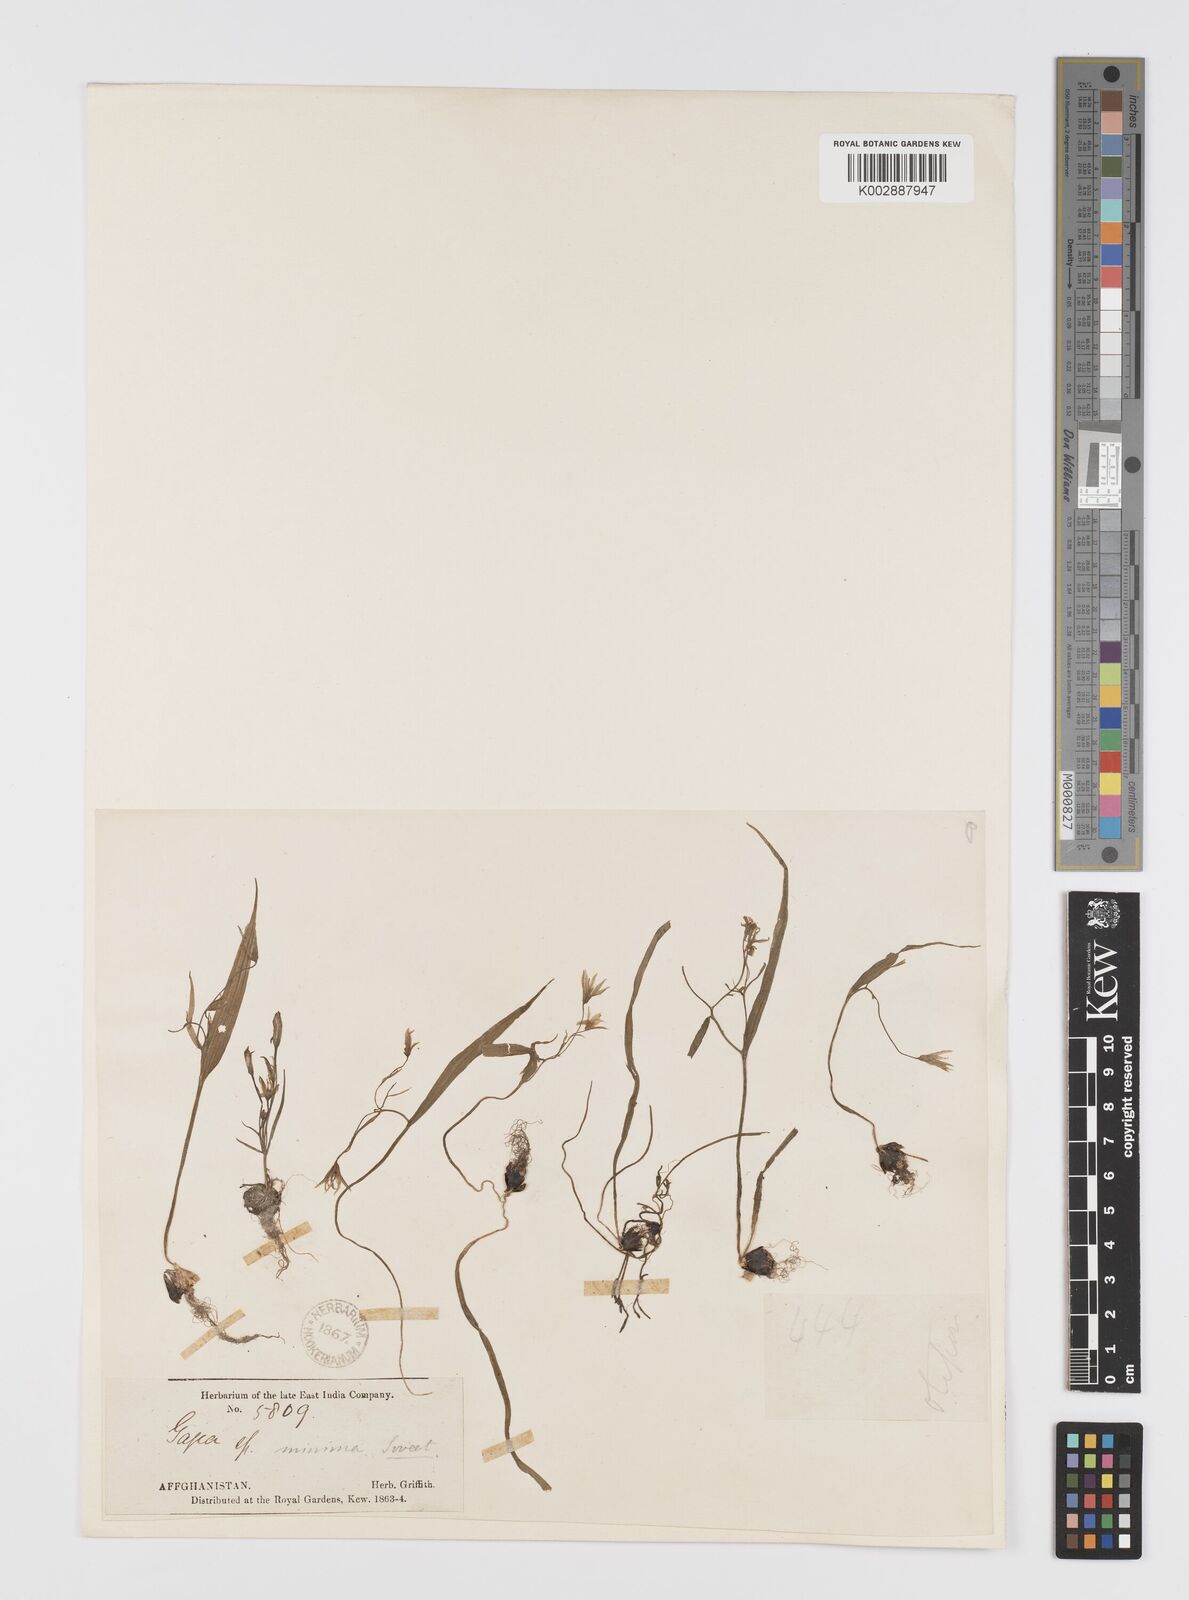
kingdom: Plantae
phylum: Tracheophyta
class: Liliopsida
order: Liliales
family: Liliaceae
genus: Gagea
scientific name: Gagea filiformis
